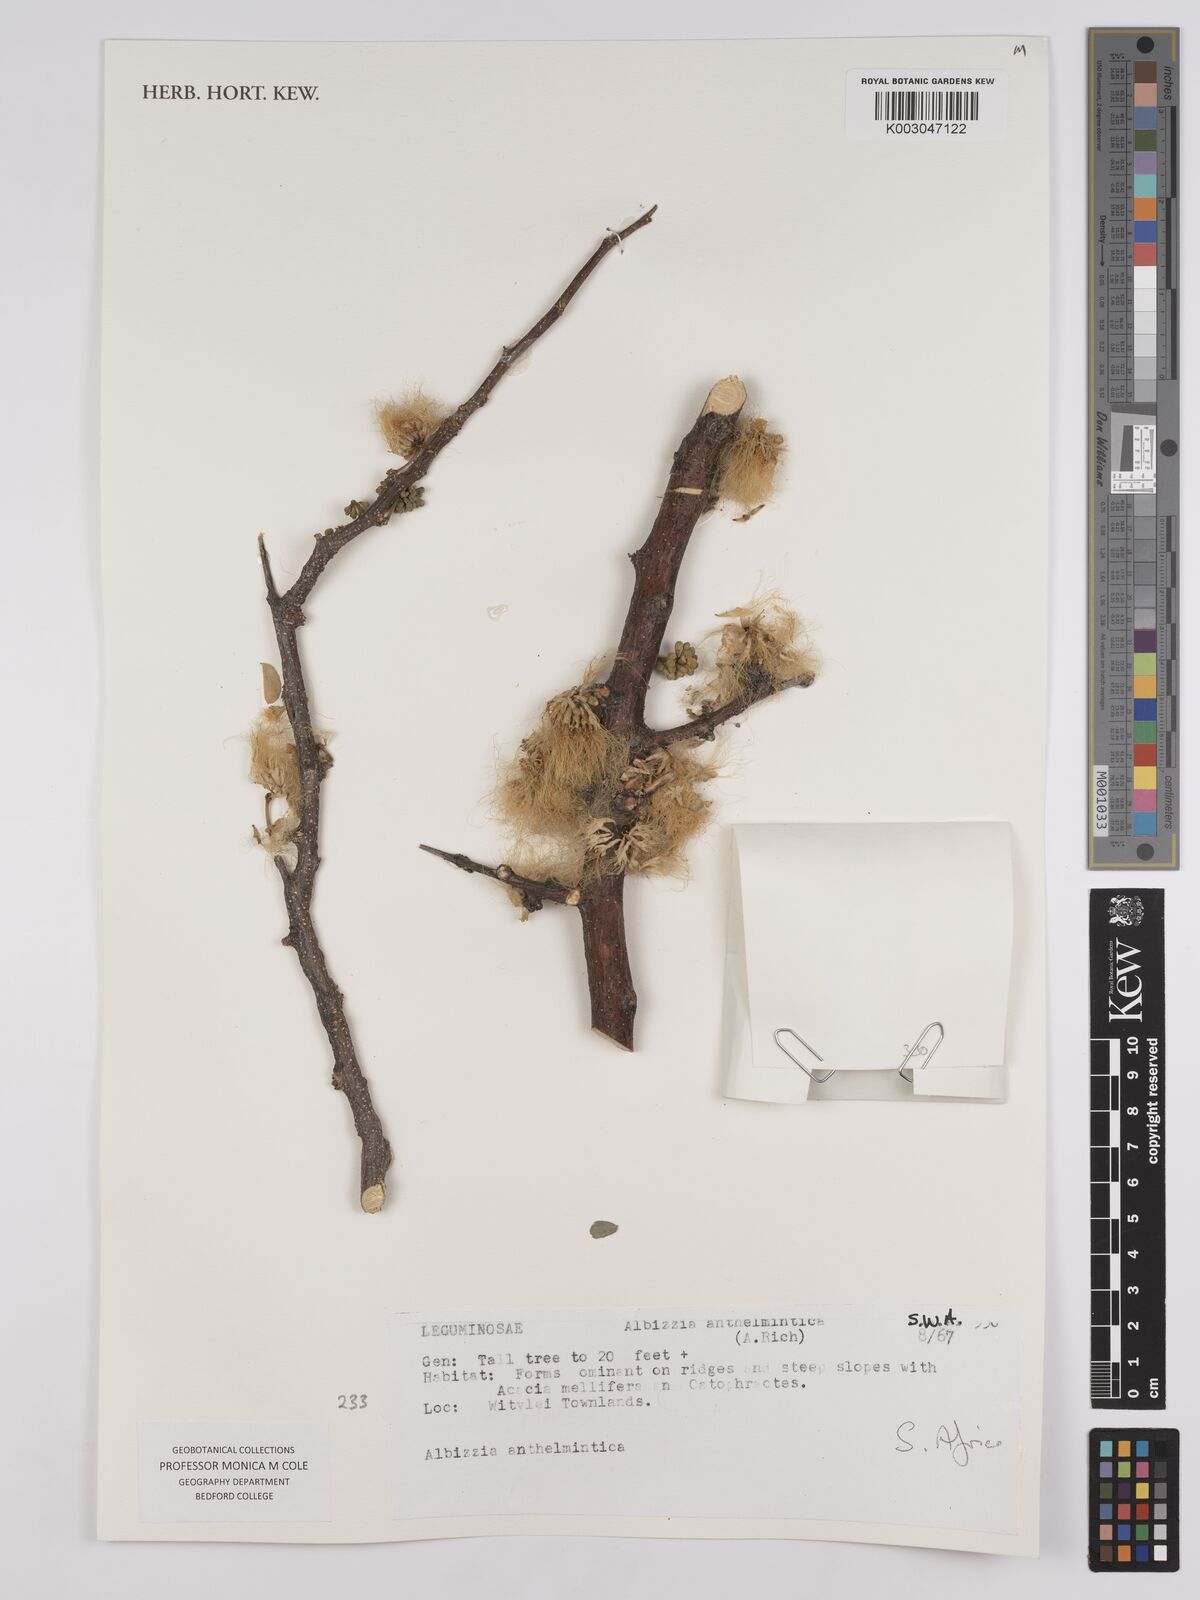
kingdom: Plantae
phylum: Tracheophyta
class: Magnoliopsida
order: Fabales
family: Fabaceae
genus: Albizia
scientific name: Albizia anthelmintica
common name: Worm-bark false-thorn
